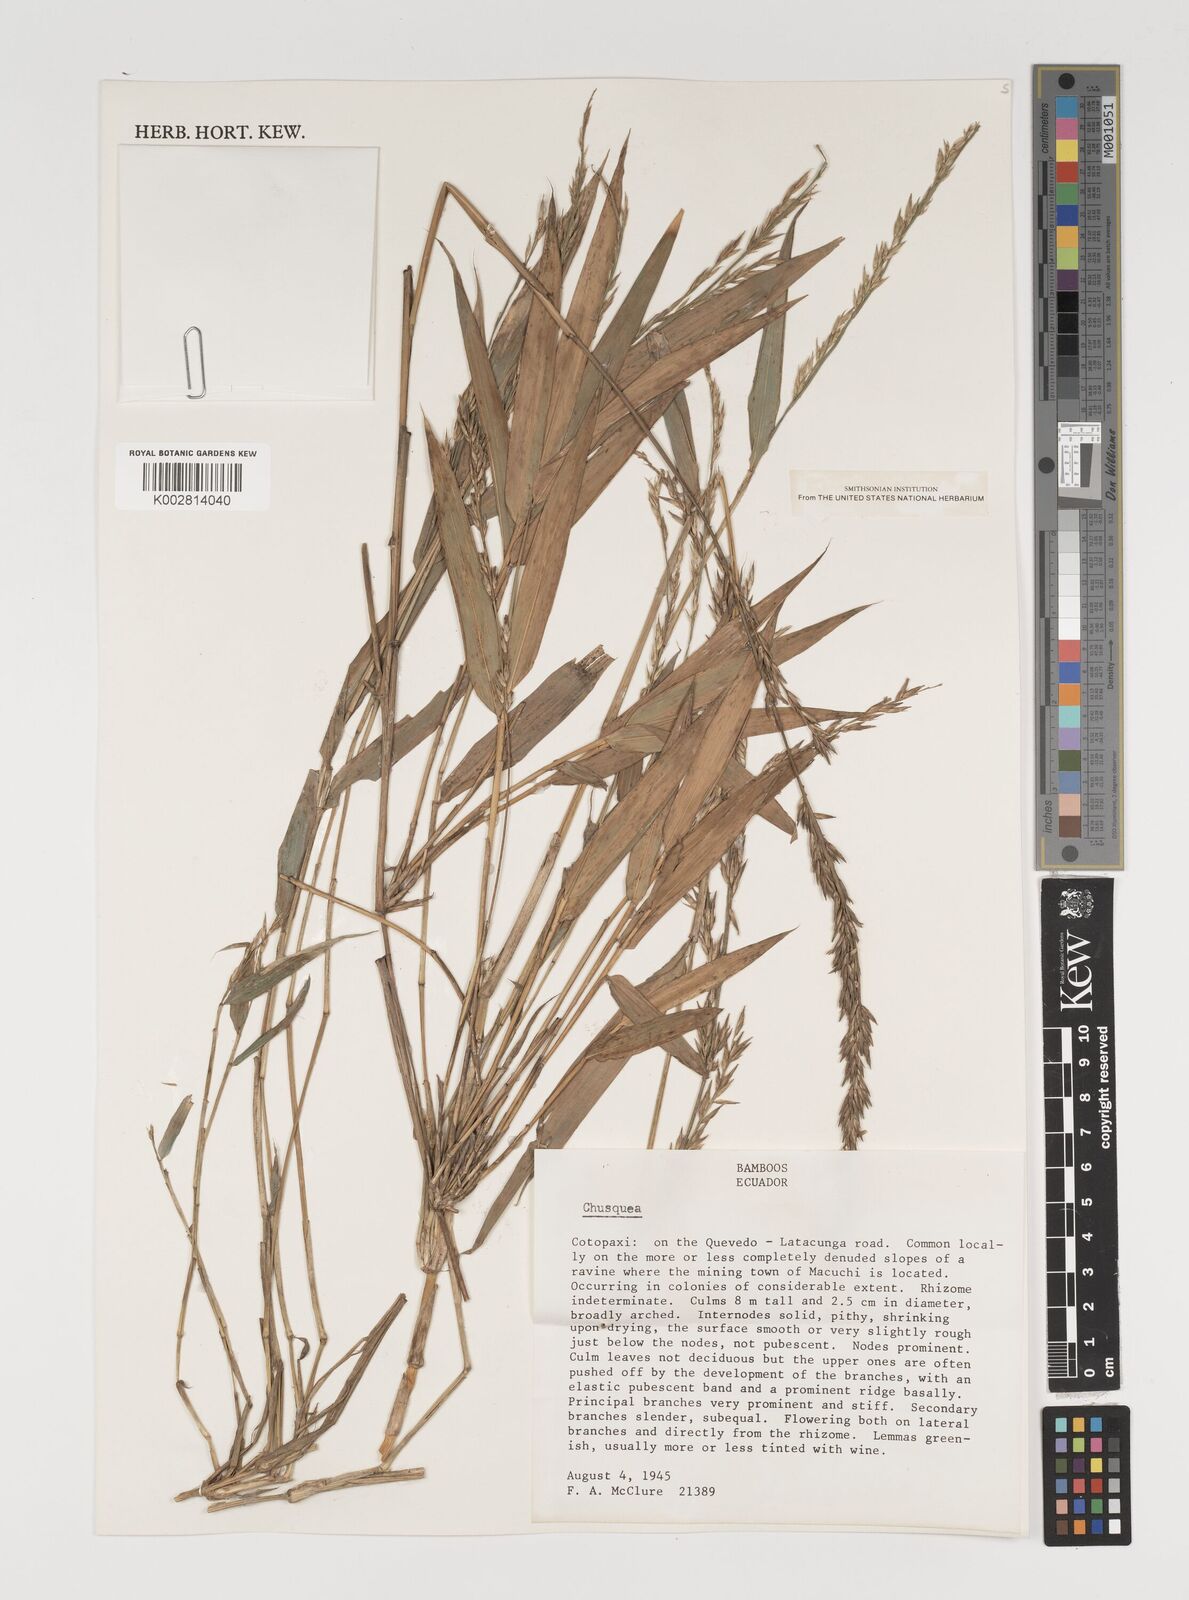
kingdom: Plantae
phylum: Tracheophyta
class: Liliopsida
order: Poales
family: Poaceae
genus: Chusquea
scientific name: Chusquea
